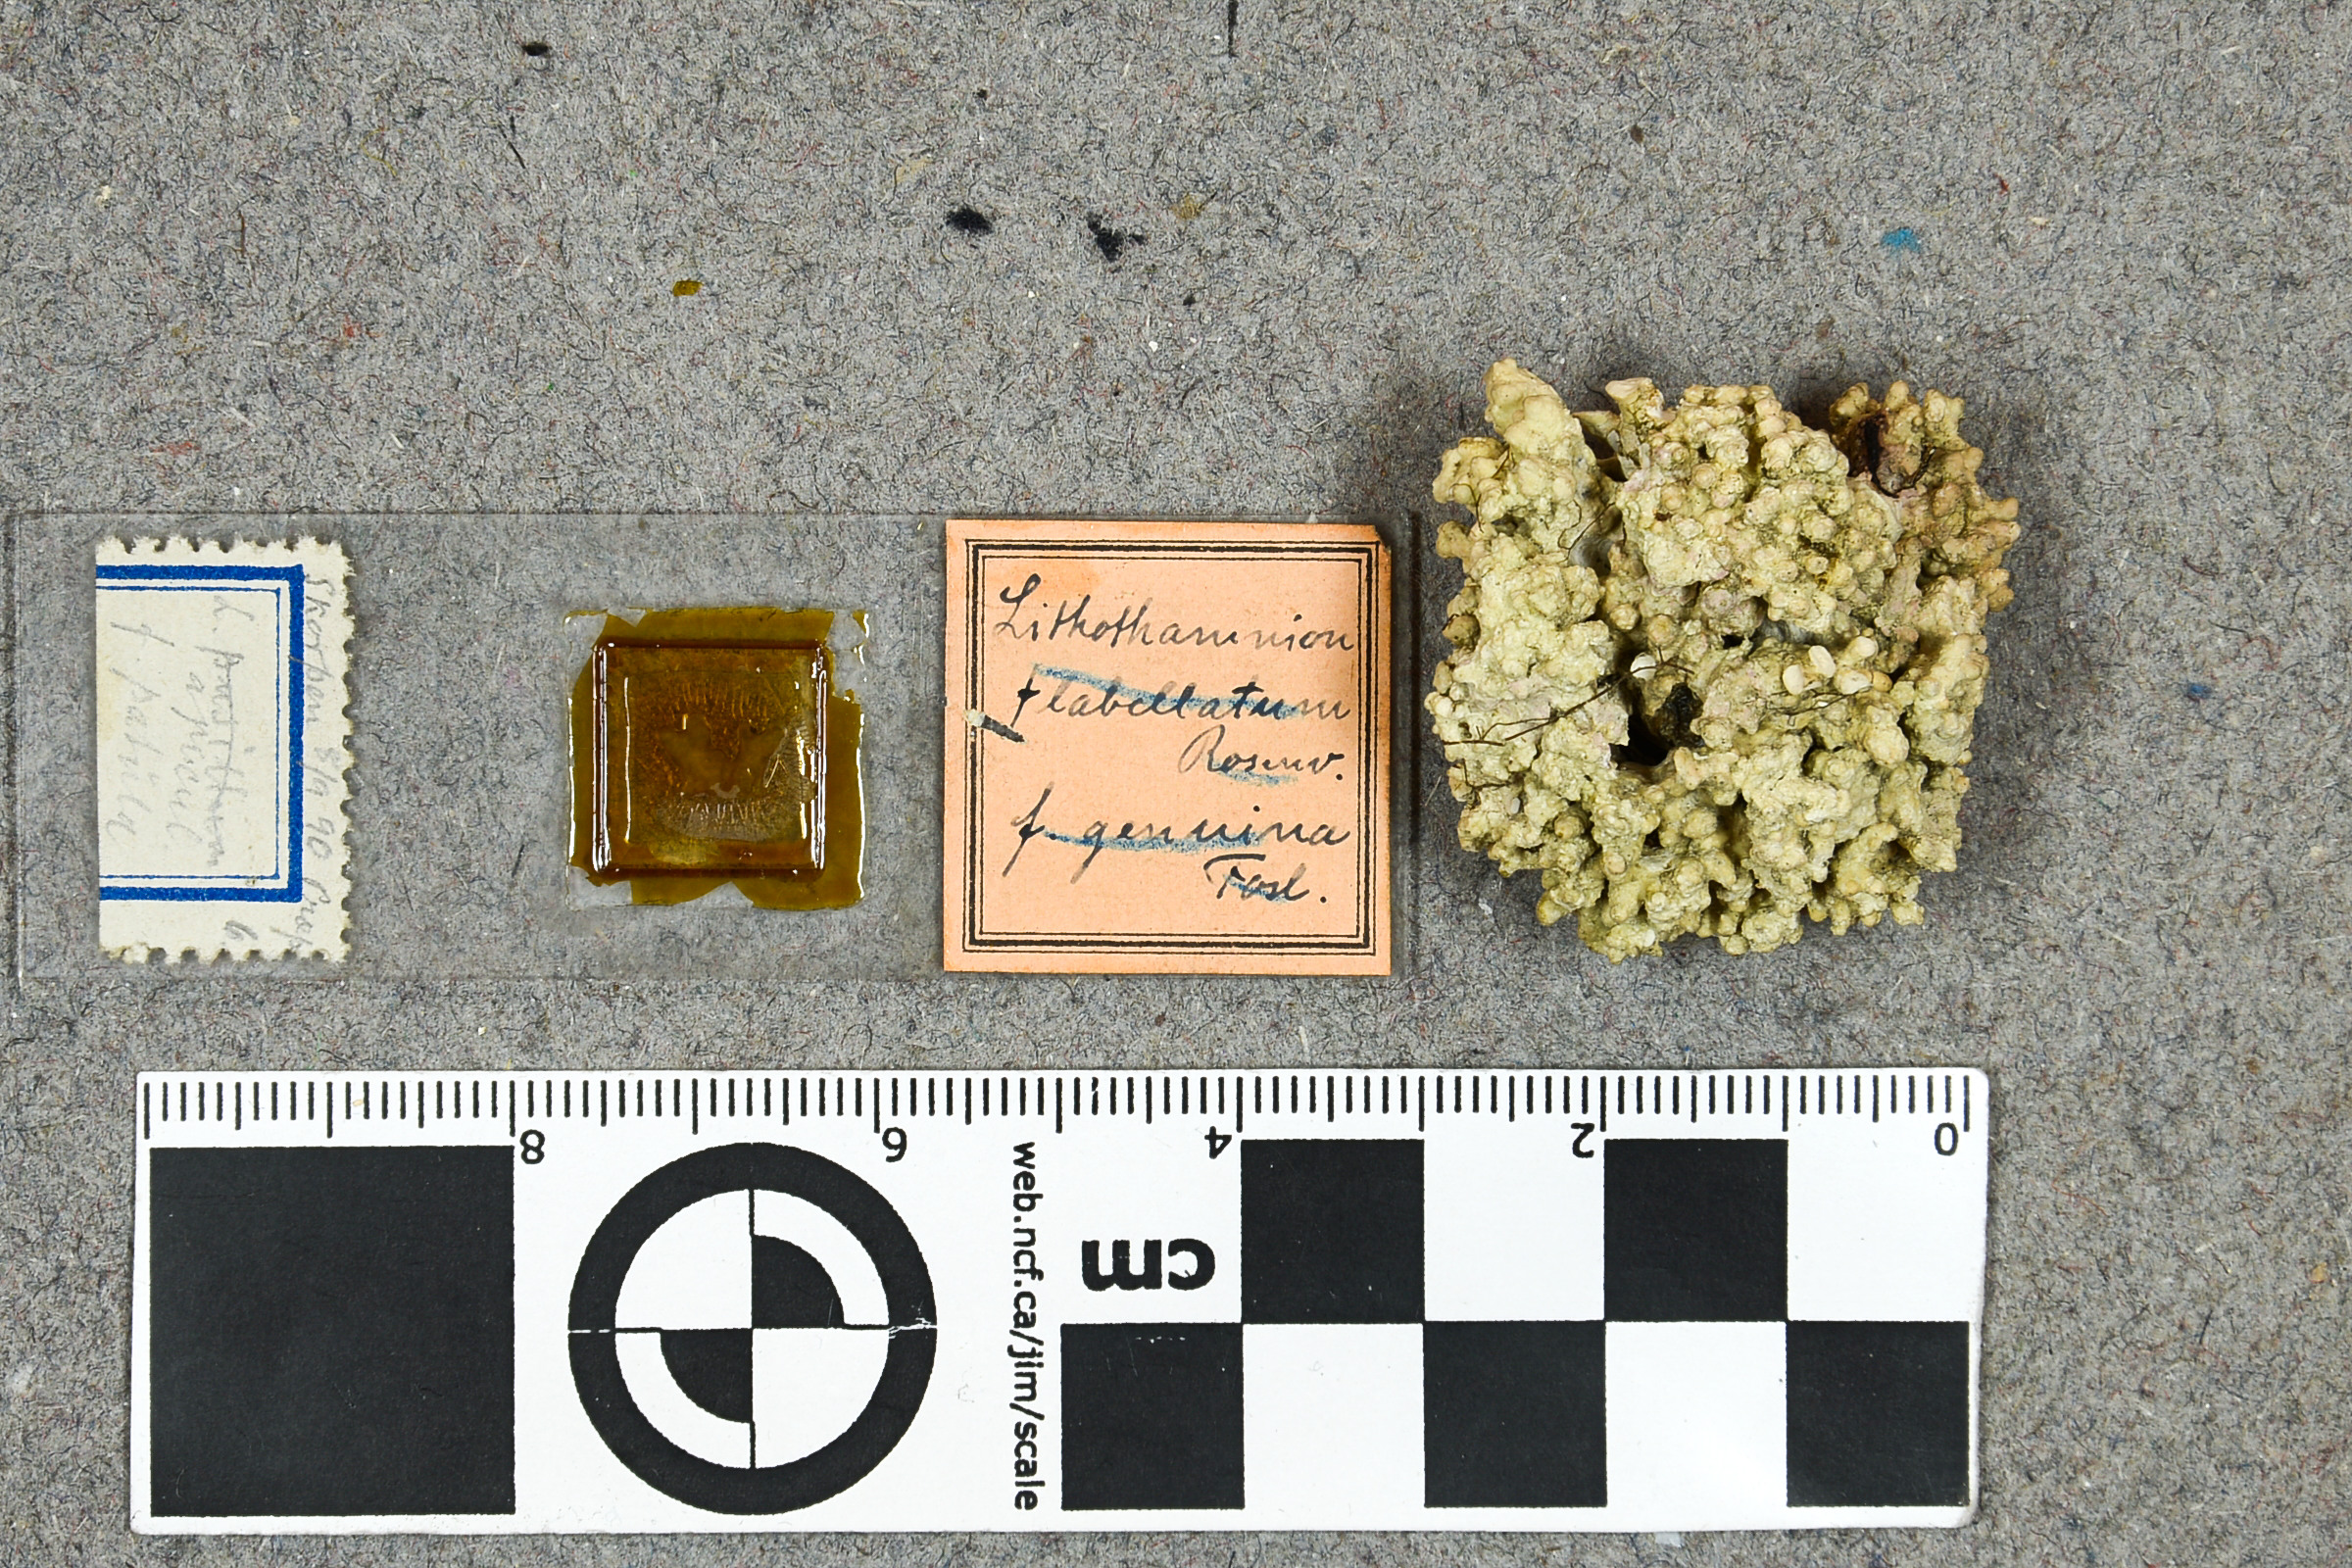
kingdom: Plantae
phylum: Rhodophyta
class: Florideophyceae
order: Corallinales
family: Hapalidiaceae
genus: Lithothamnion
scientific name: Lithothamnion ungeri
